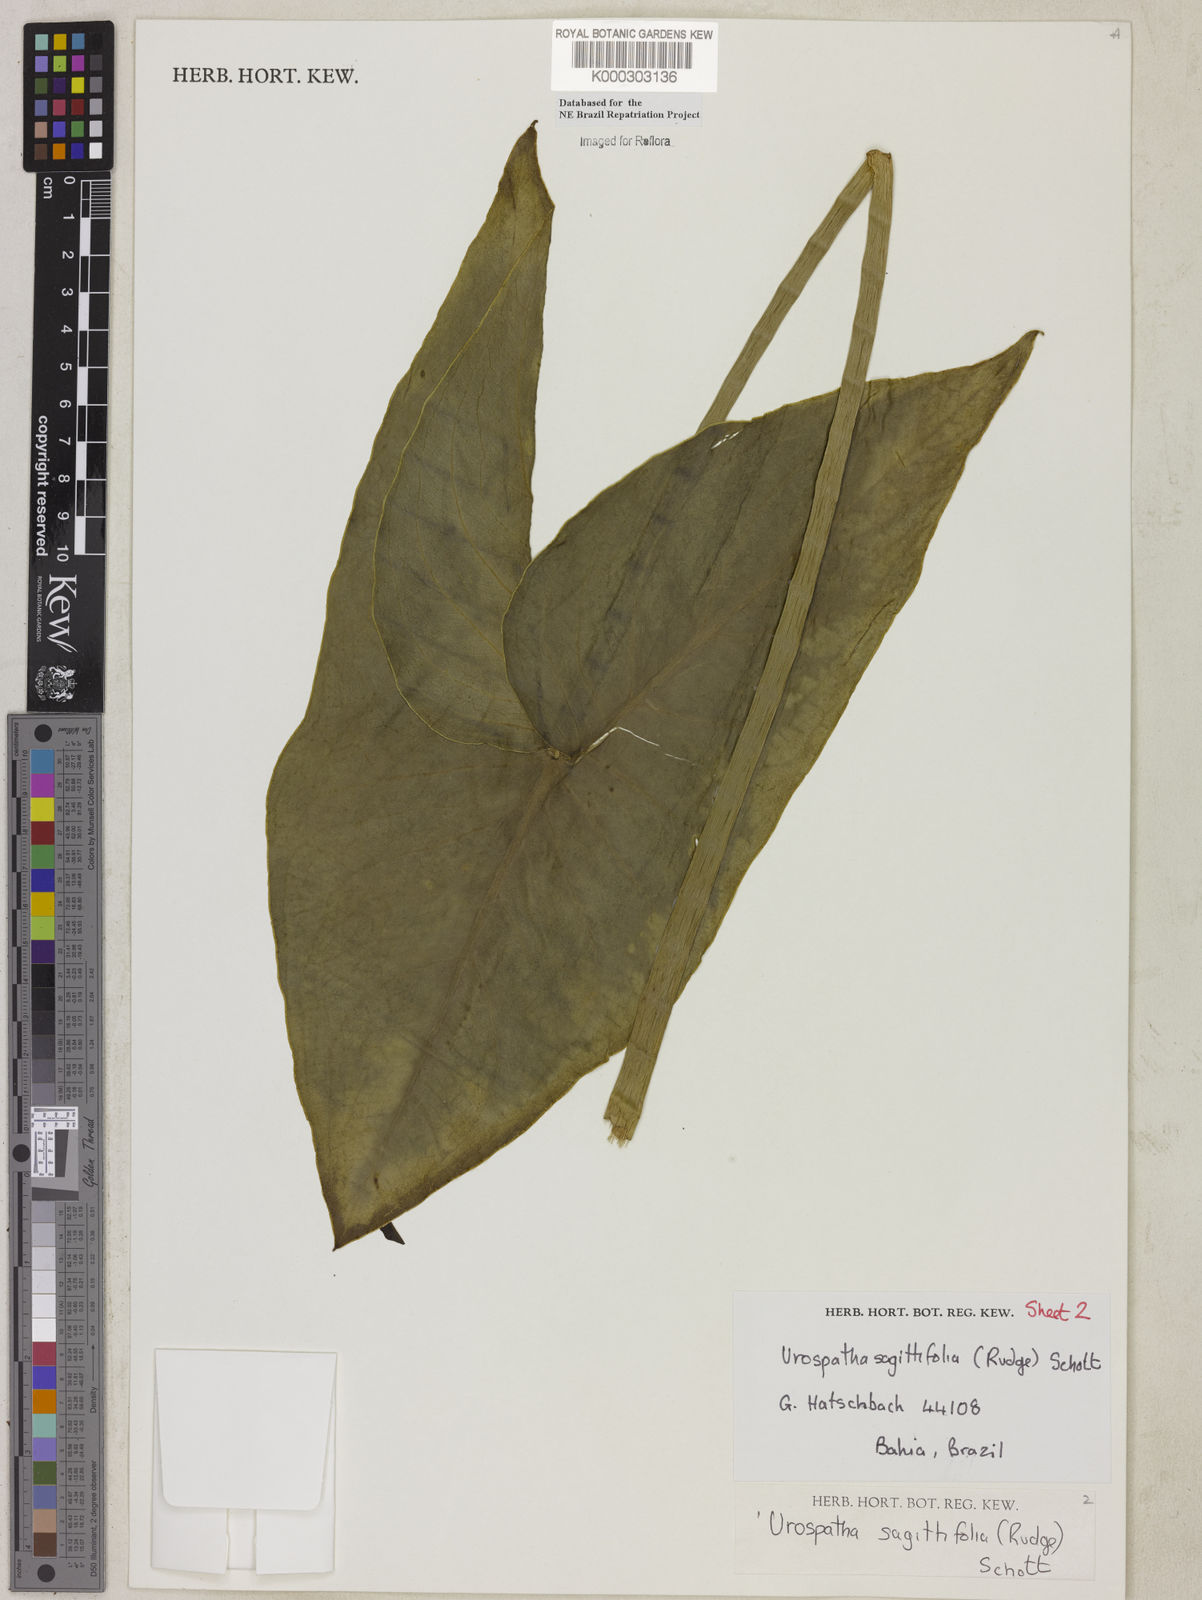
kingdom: Plantae
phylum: Tracheophyta
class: Liliopsida
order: Alismatales
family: Araceae
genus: Urospatha
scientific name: Urospatha sagittifolia
